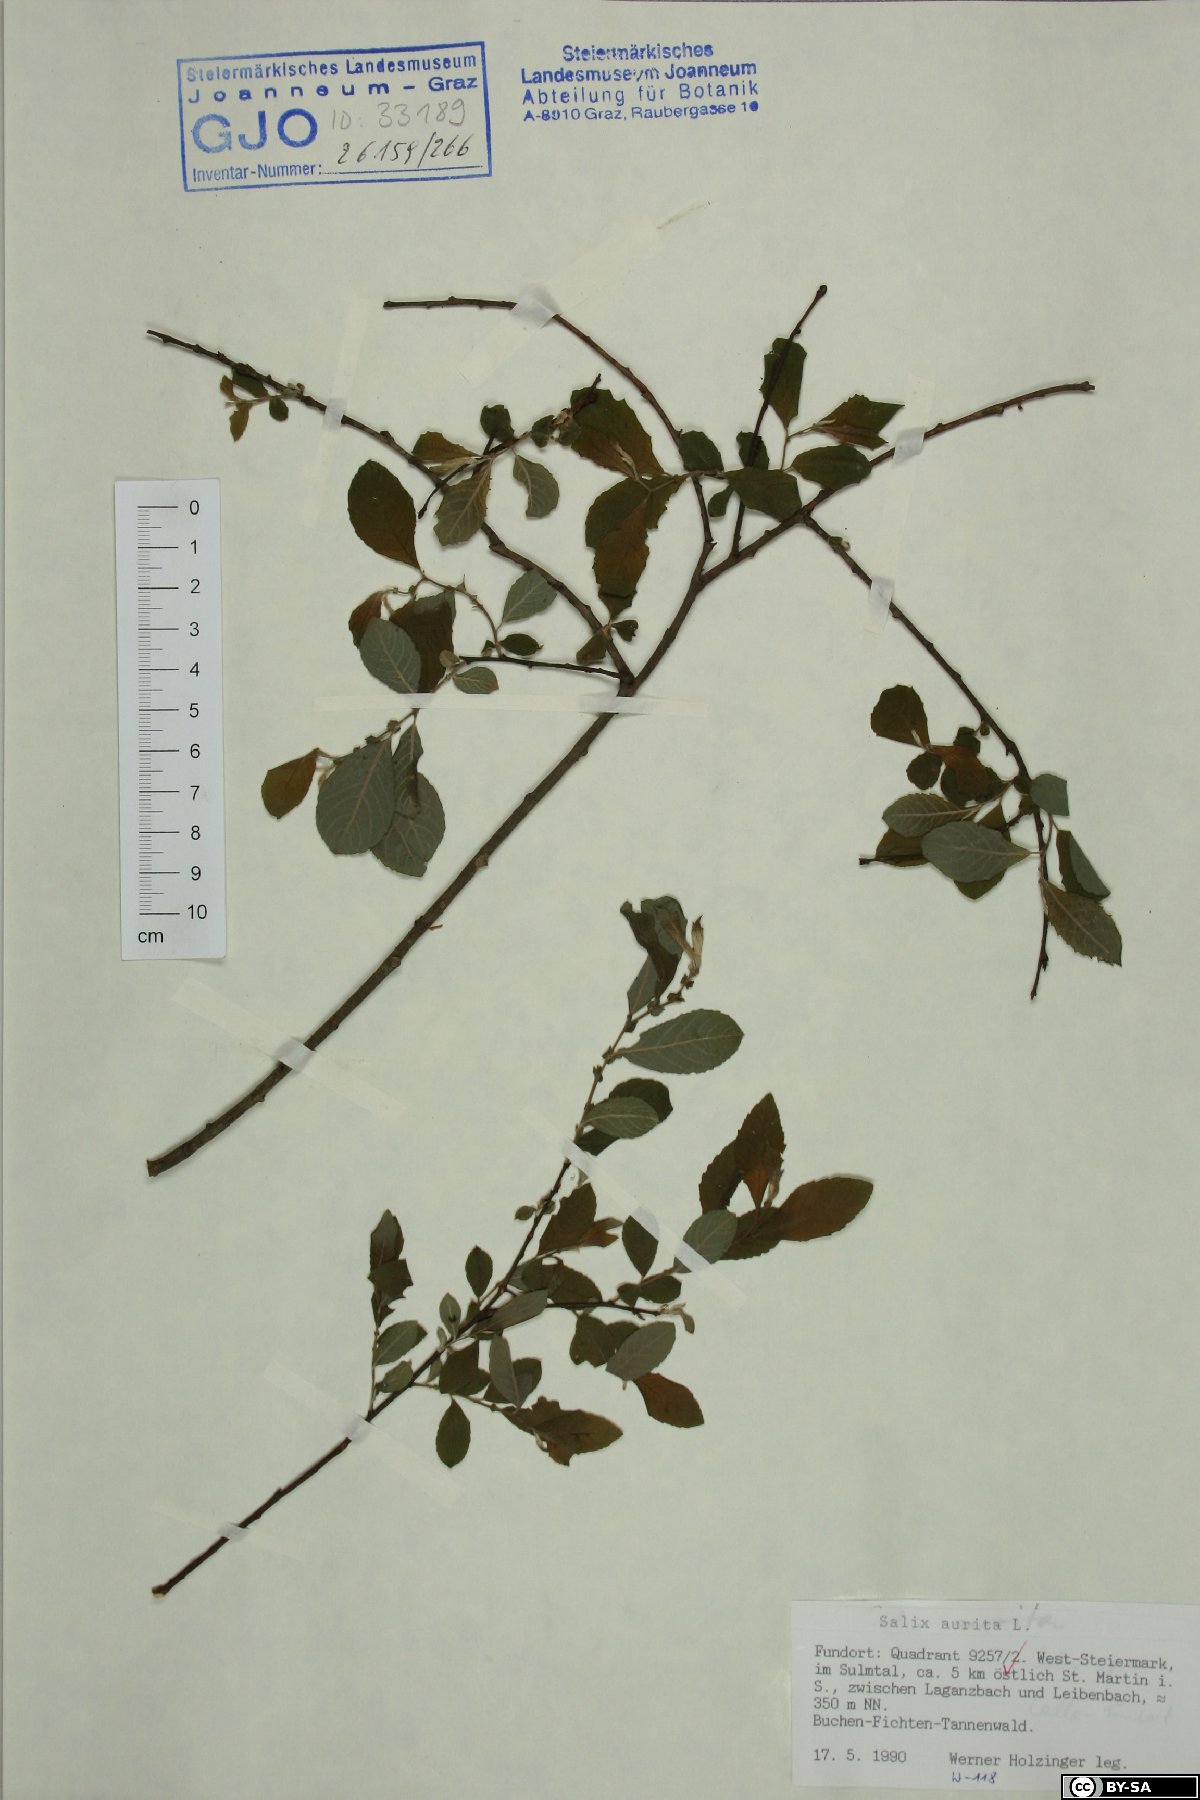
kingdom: Plantae
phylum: Tracheophyta
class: Magnoliopsida
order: Malpighiales
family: Salicaceae
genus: Salix
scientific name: Salix aurita
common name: Eared willow
